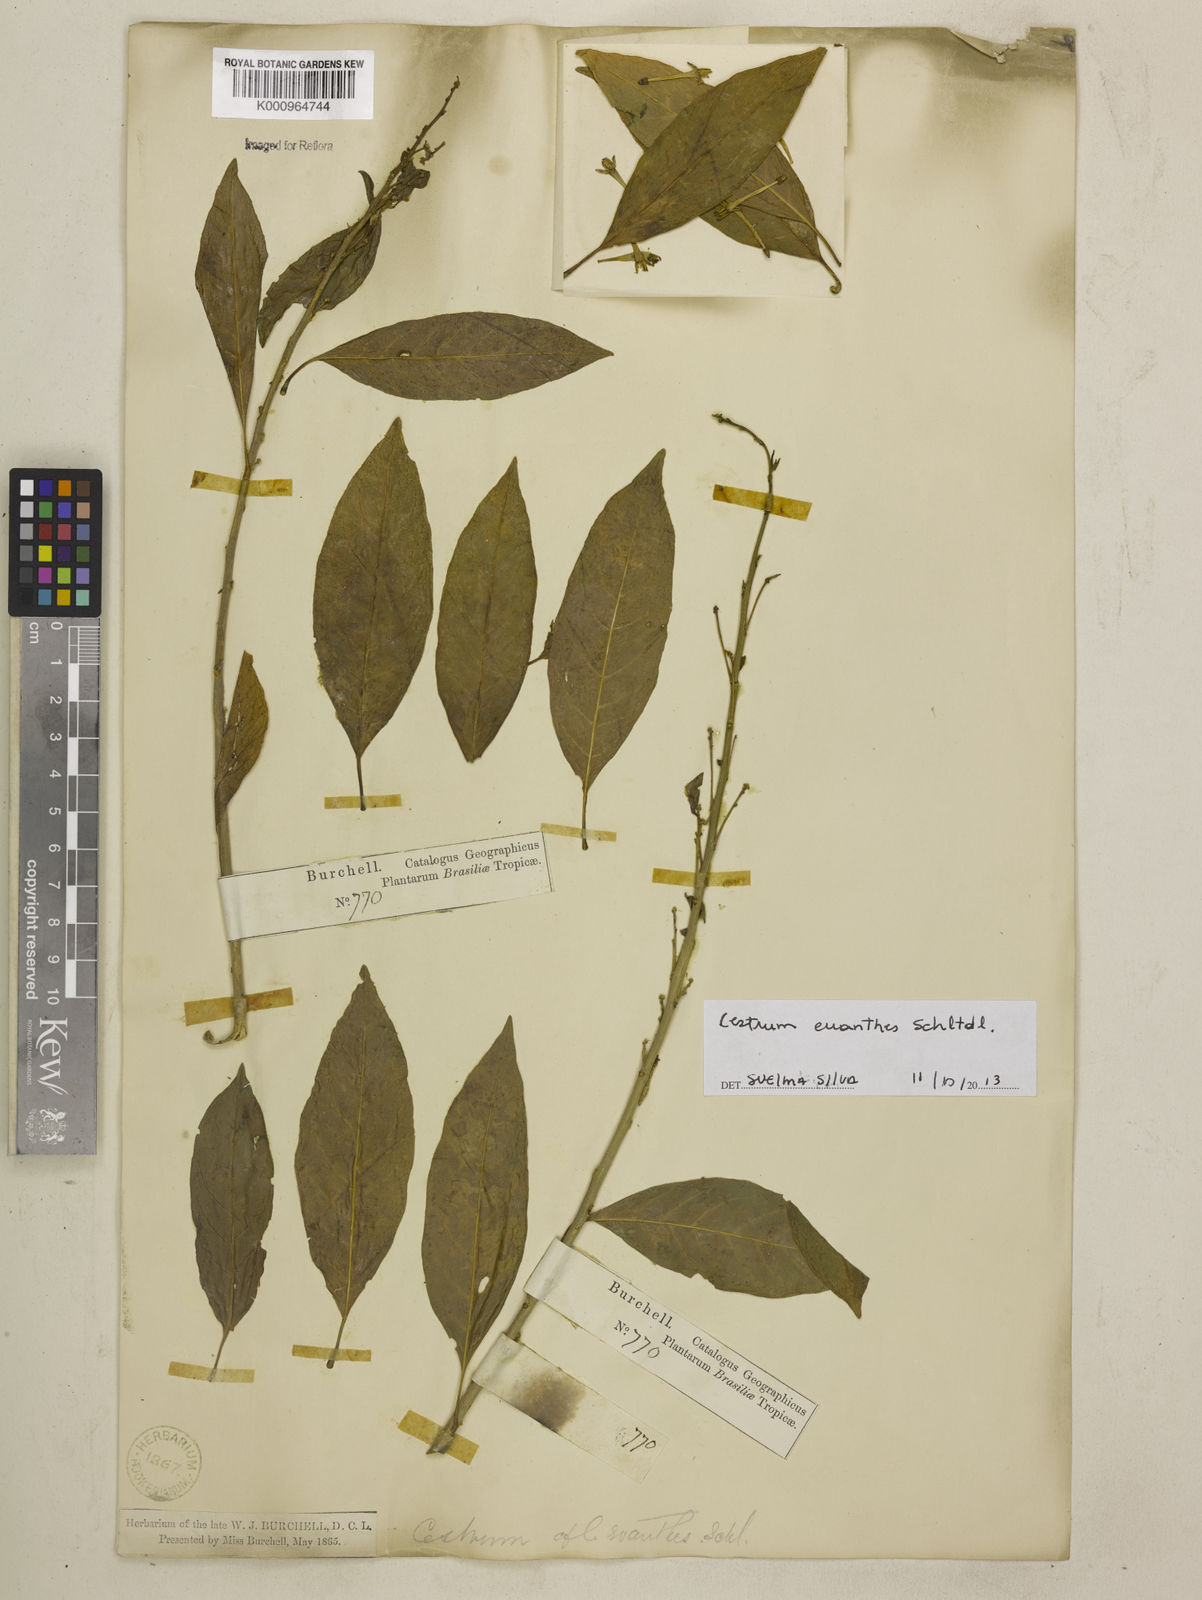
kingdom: Plantae
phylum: Tracheophyta
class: Magnoliopsida
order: Solanales
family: Solanaceae
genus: Cestrum
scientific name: Cestrum euanthes
